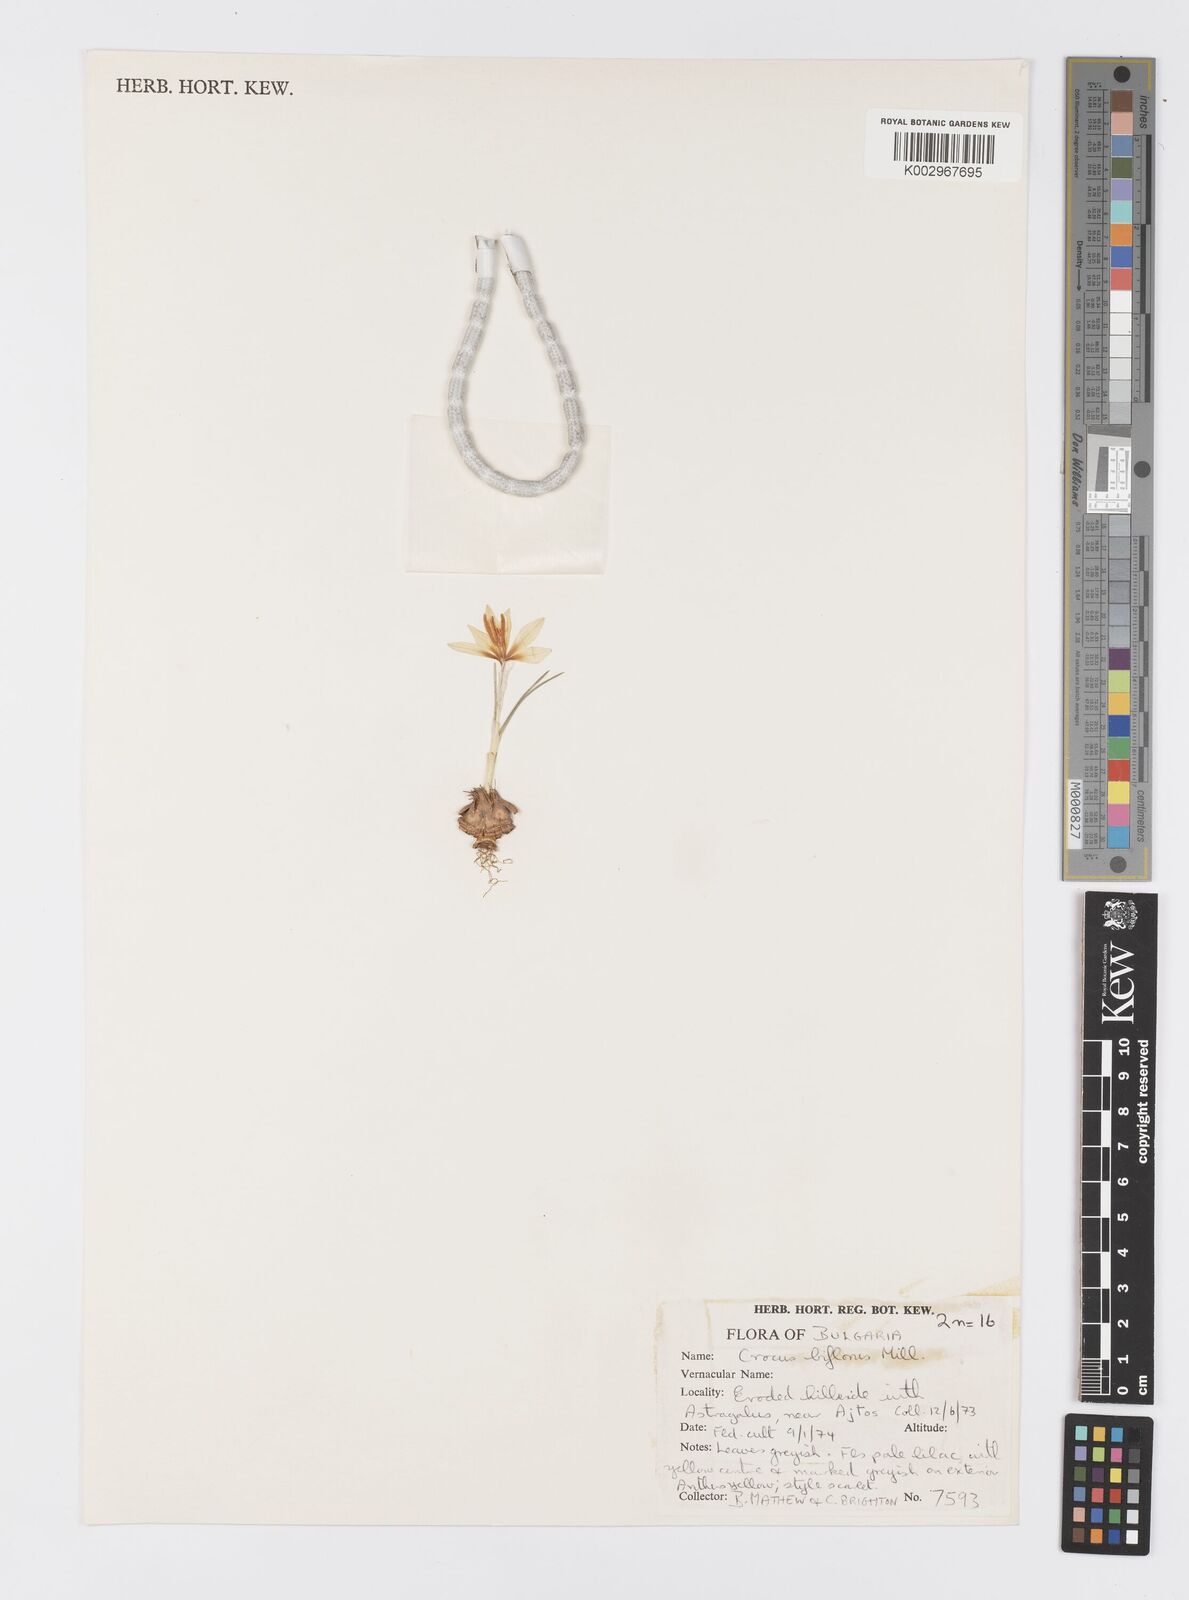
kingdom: Plantae
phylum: Tracheophyta
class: Liliopsida
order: Asparagales
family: Iridaceae
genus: Crocus
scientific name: Crocus biflorus
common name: Silvery crocus
